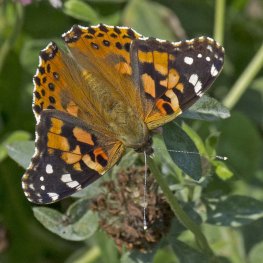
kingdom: Animalia
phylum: Arthropoda
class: Insecta
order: Lepidoptera
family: Nymphalidae
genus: Vanessa
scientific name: Vanessa cardui
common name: Painted Lady
